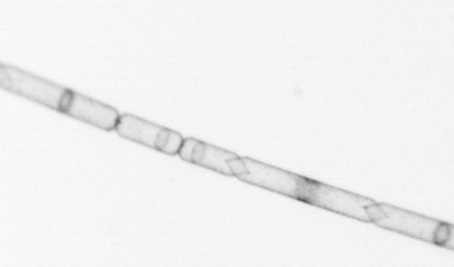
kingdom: Chromista
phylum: Ochrophyta
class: Bacillariophyceae
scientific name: Bacillariophyceae
